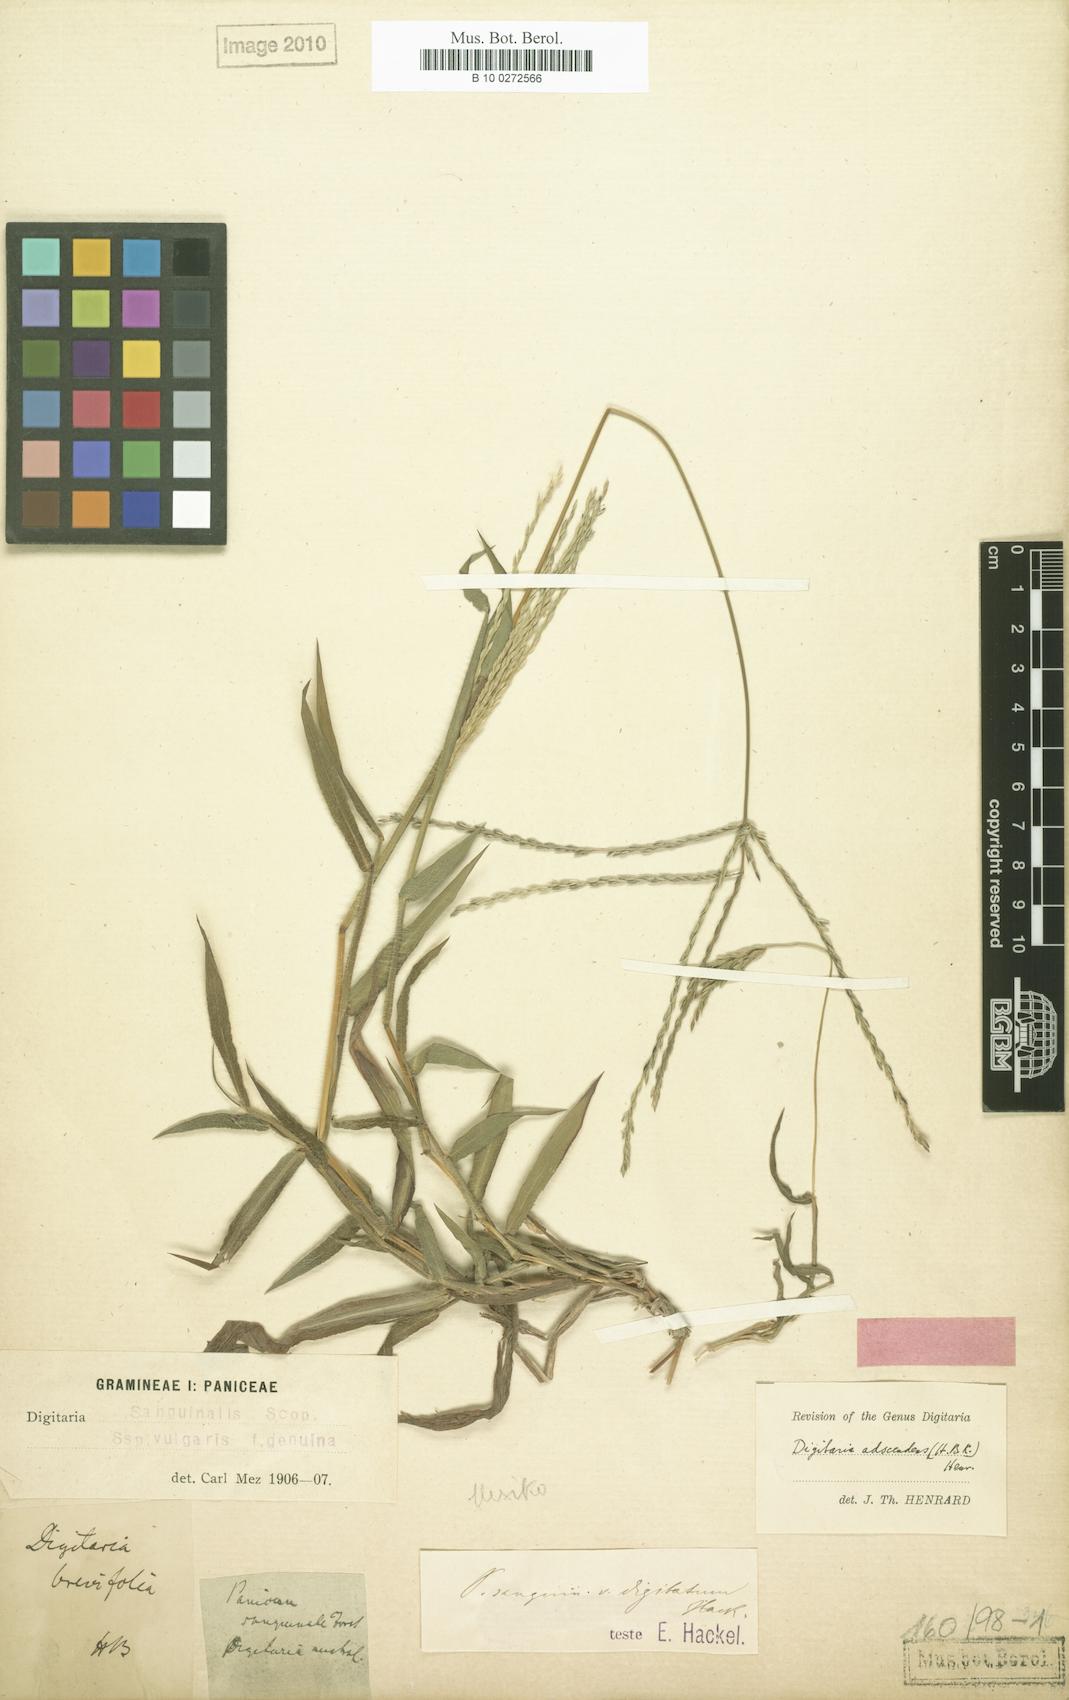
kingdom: Plantae
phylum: Tracheophyta
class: Liliopsida
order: Poales
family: Poaceae
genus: Digitaria
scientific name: Digitaria ciliaris
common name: Tropical finger-grass
